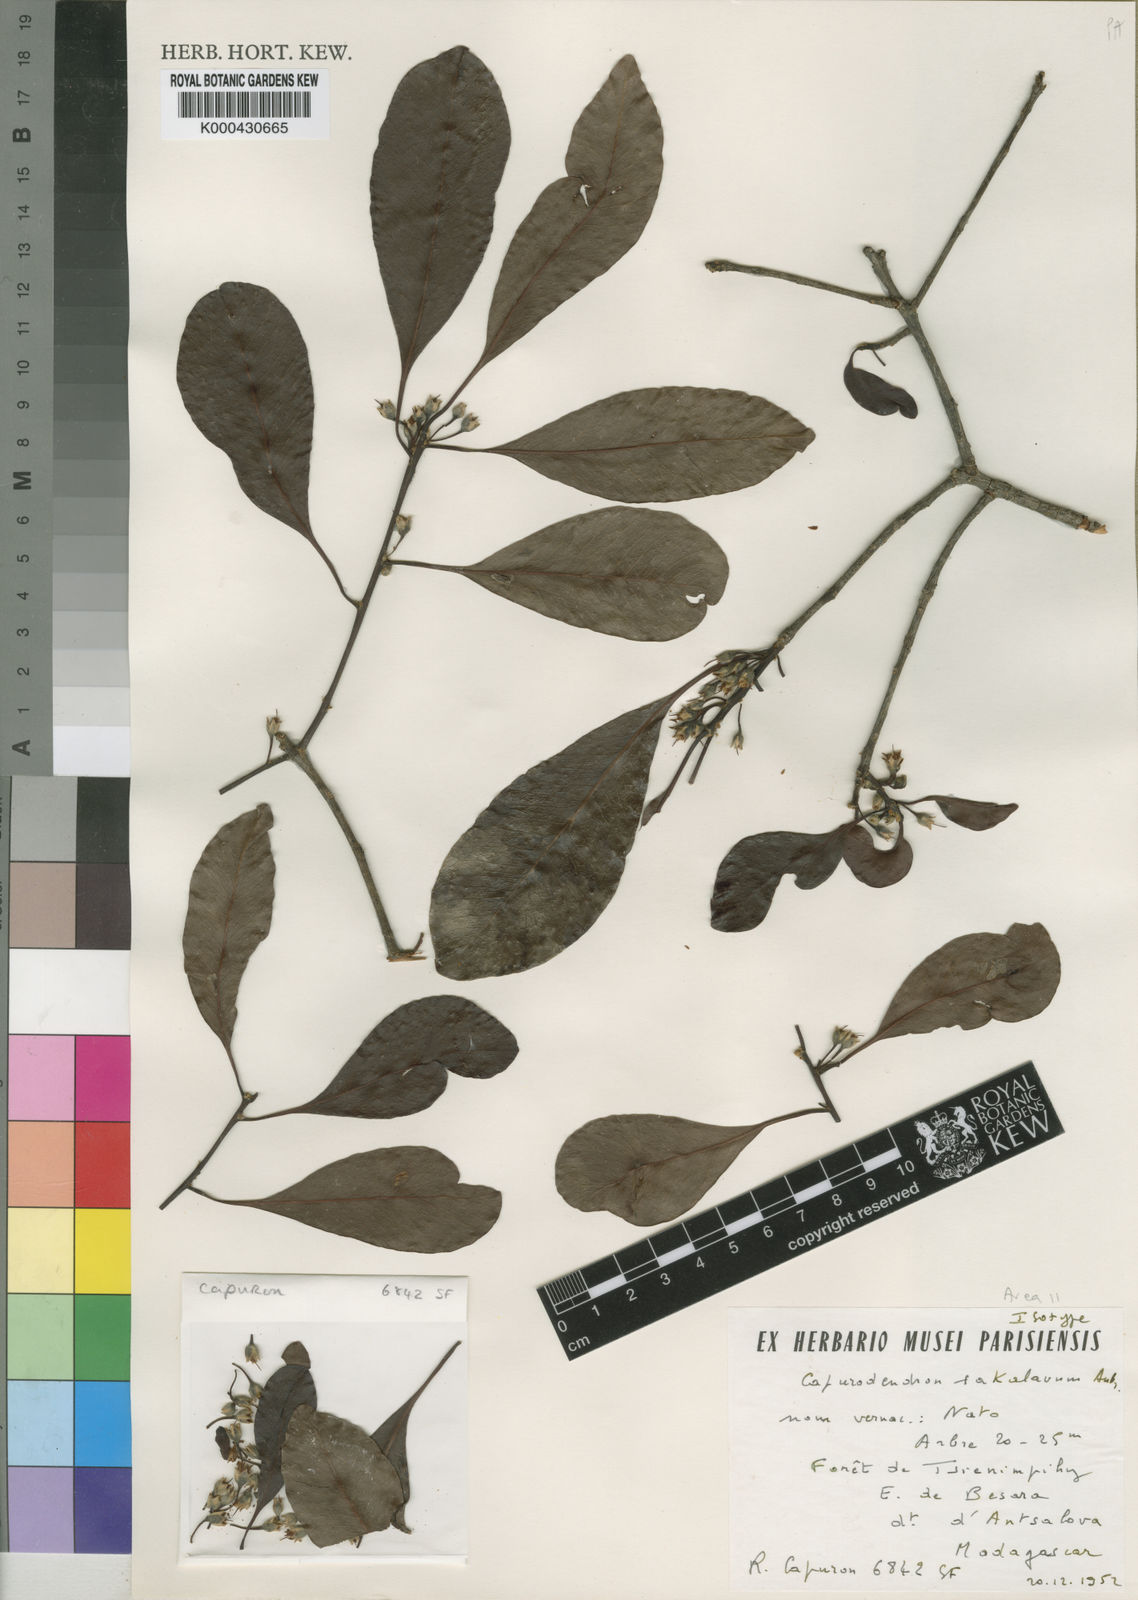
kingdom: Plantae
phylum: Tracheophyta
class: Magnoliopsida
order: Ericales
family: Sapotaceae
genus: Capurodendron
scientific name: Capurodendron
